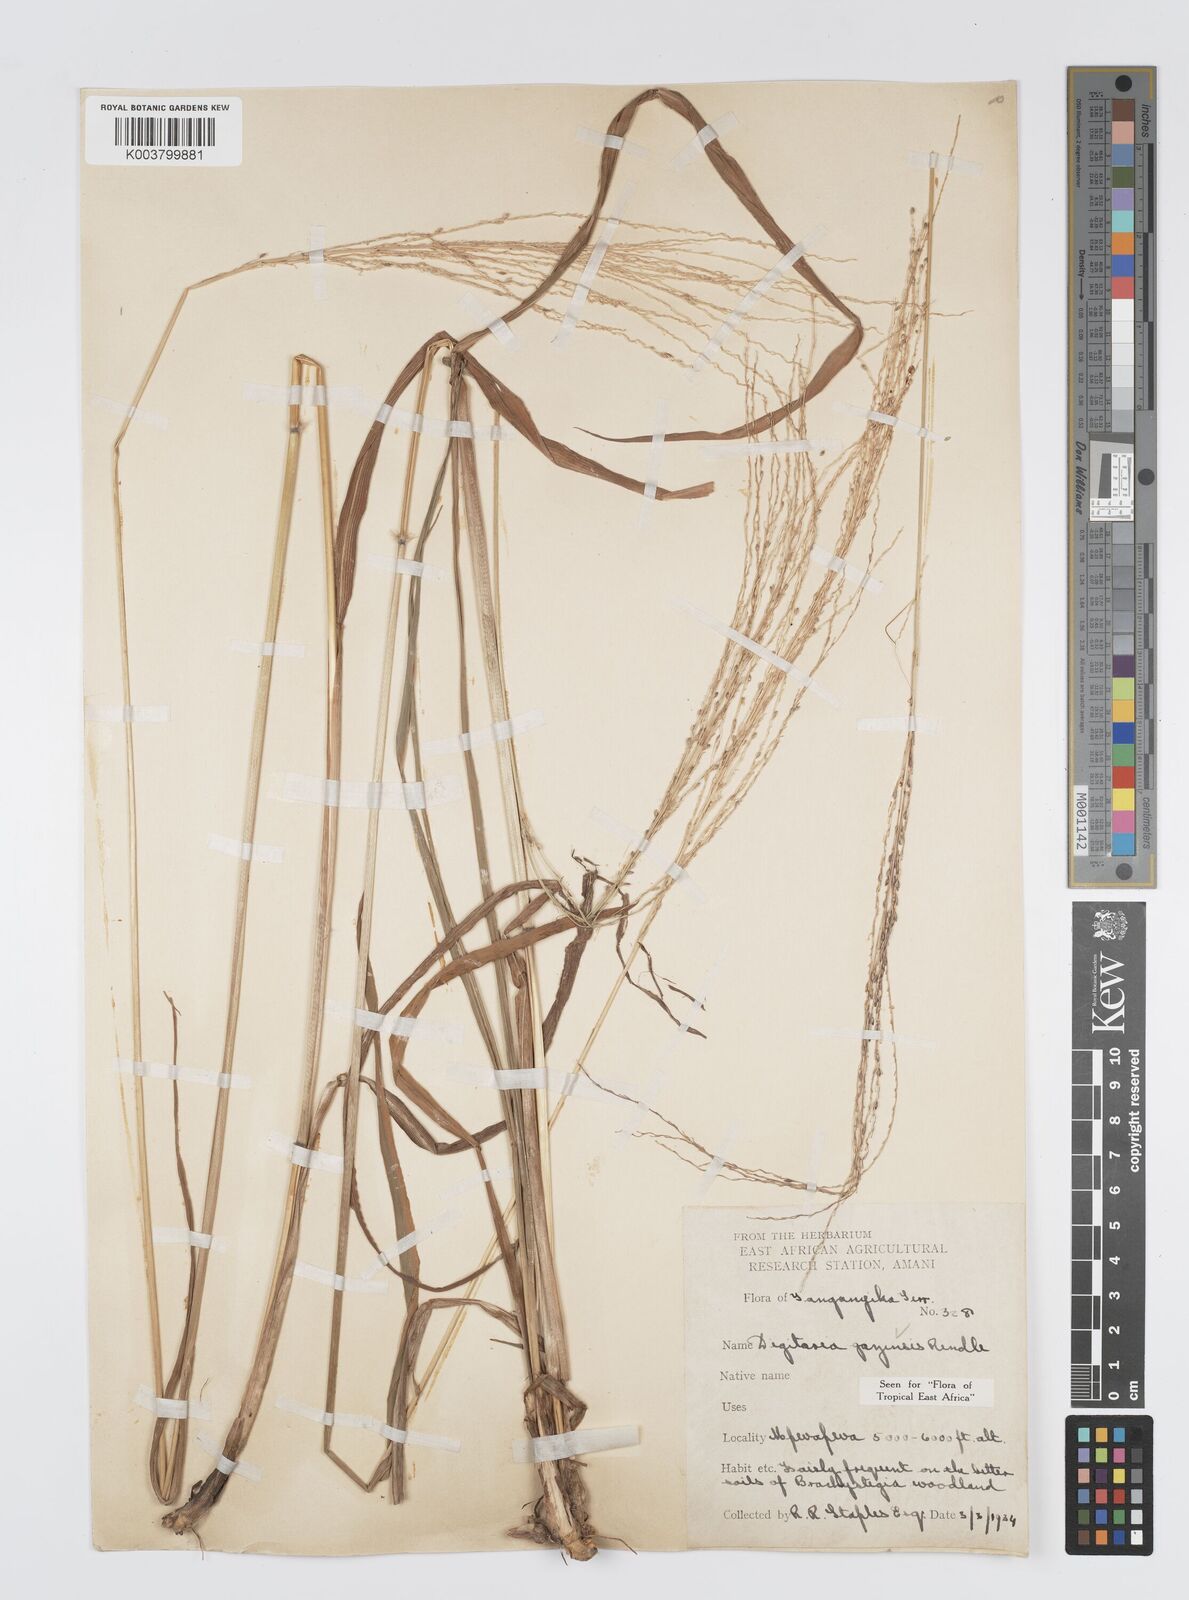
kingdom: Plantae
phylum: Tracheophyta
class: Liliopsida
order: Poales
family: Poaceae
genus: Digitaria
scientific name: Digitaria gazensis
